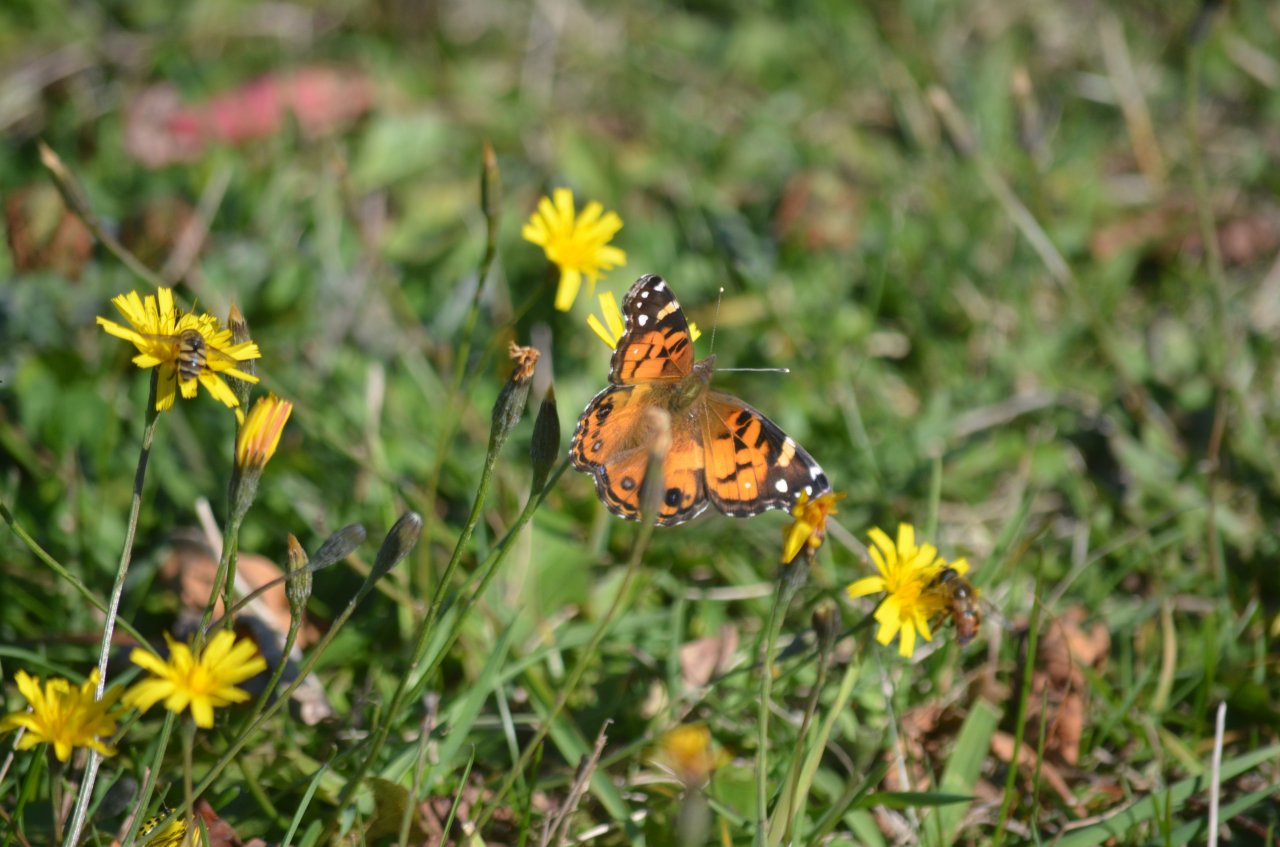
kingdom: Animalia
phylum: Arthropoda
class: Insecta
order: Lepidoptera
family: Nymphalidae
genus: Vanessa
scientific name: Vanessa virginiensis
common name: American Lady
